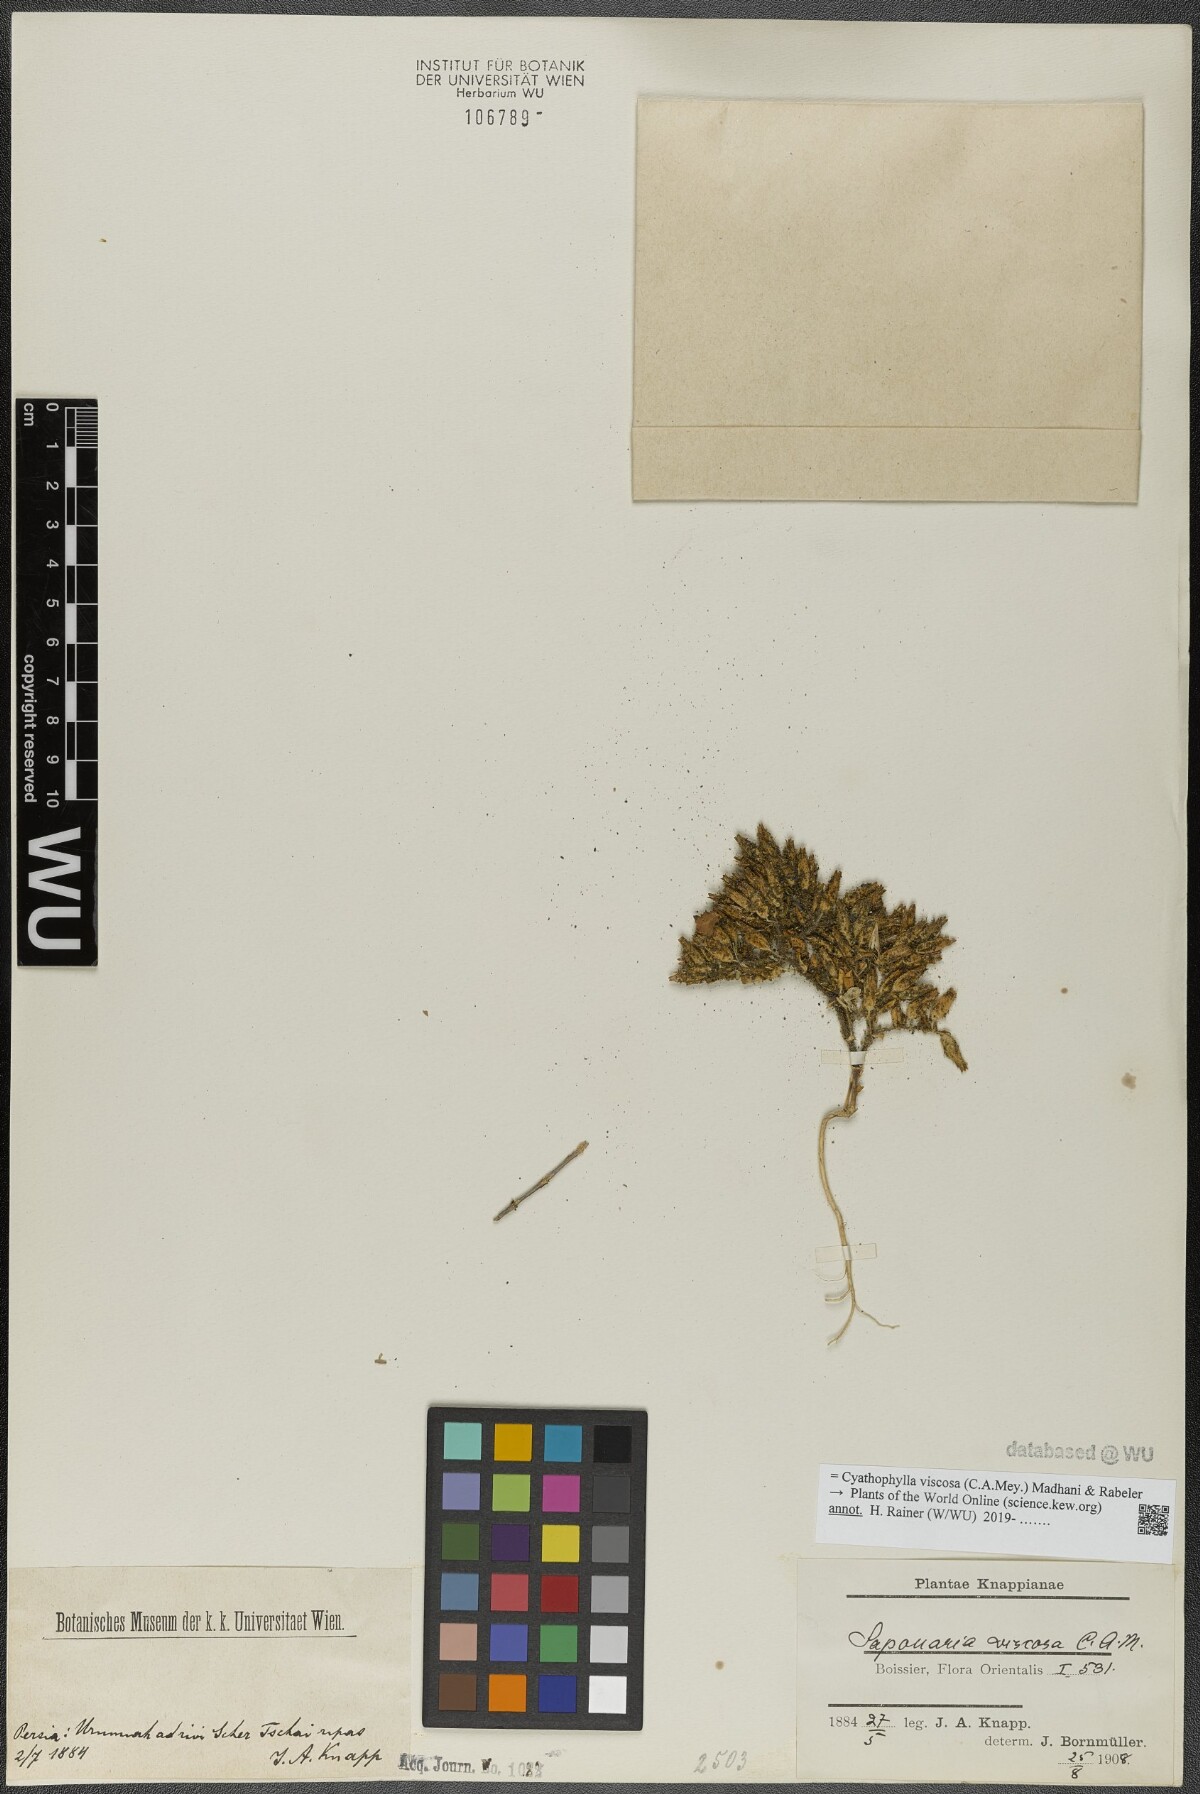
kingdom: Plantae
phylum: Tracheophyta
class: Magnoliopsida
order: Caryophyllales
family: Caryophyllaceae
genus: Cyathophylla
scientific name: Cyathophylla viscosa
